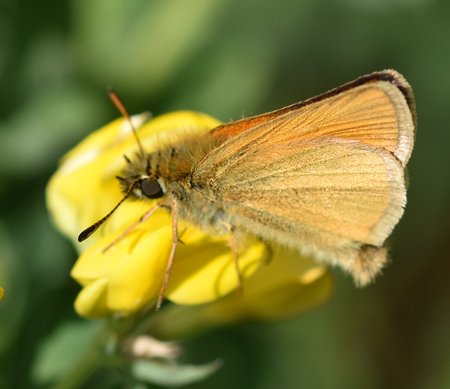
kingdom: Animalia
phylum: Arthropoda
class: Insecta
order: Lepidoptera
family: Hesperiidae
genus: Thymelicus
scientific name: Thymelicus lineola
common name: European Skipper
